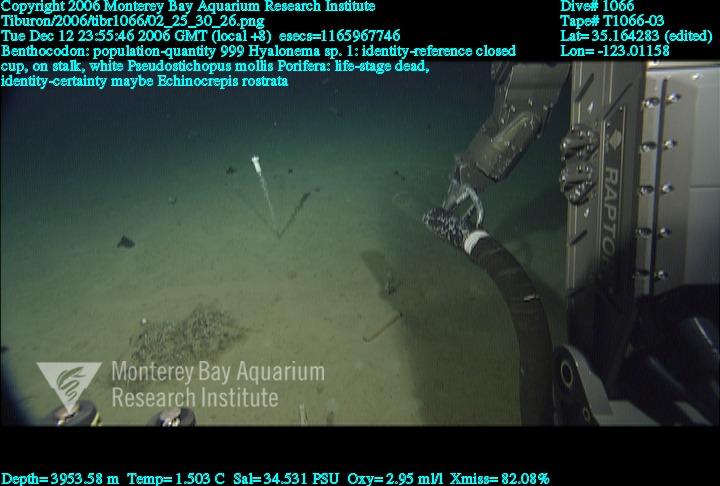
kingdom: Animalia
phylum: Porifera
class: Hexactinellida
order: Amphidiscosida
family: Hyalonematidae
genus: Hyalonema
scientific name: Hyalonema
